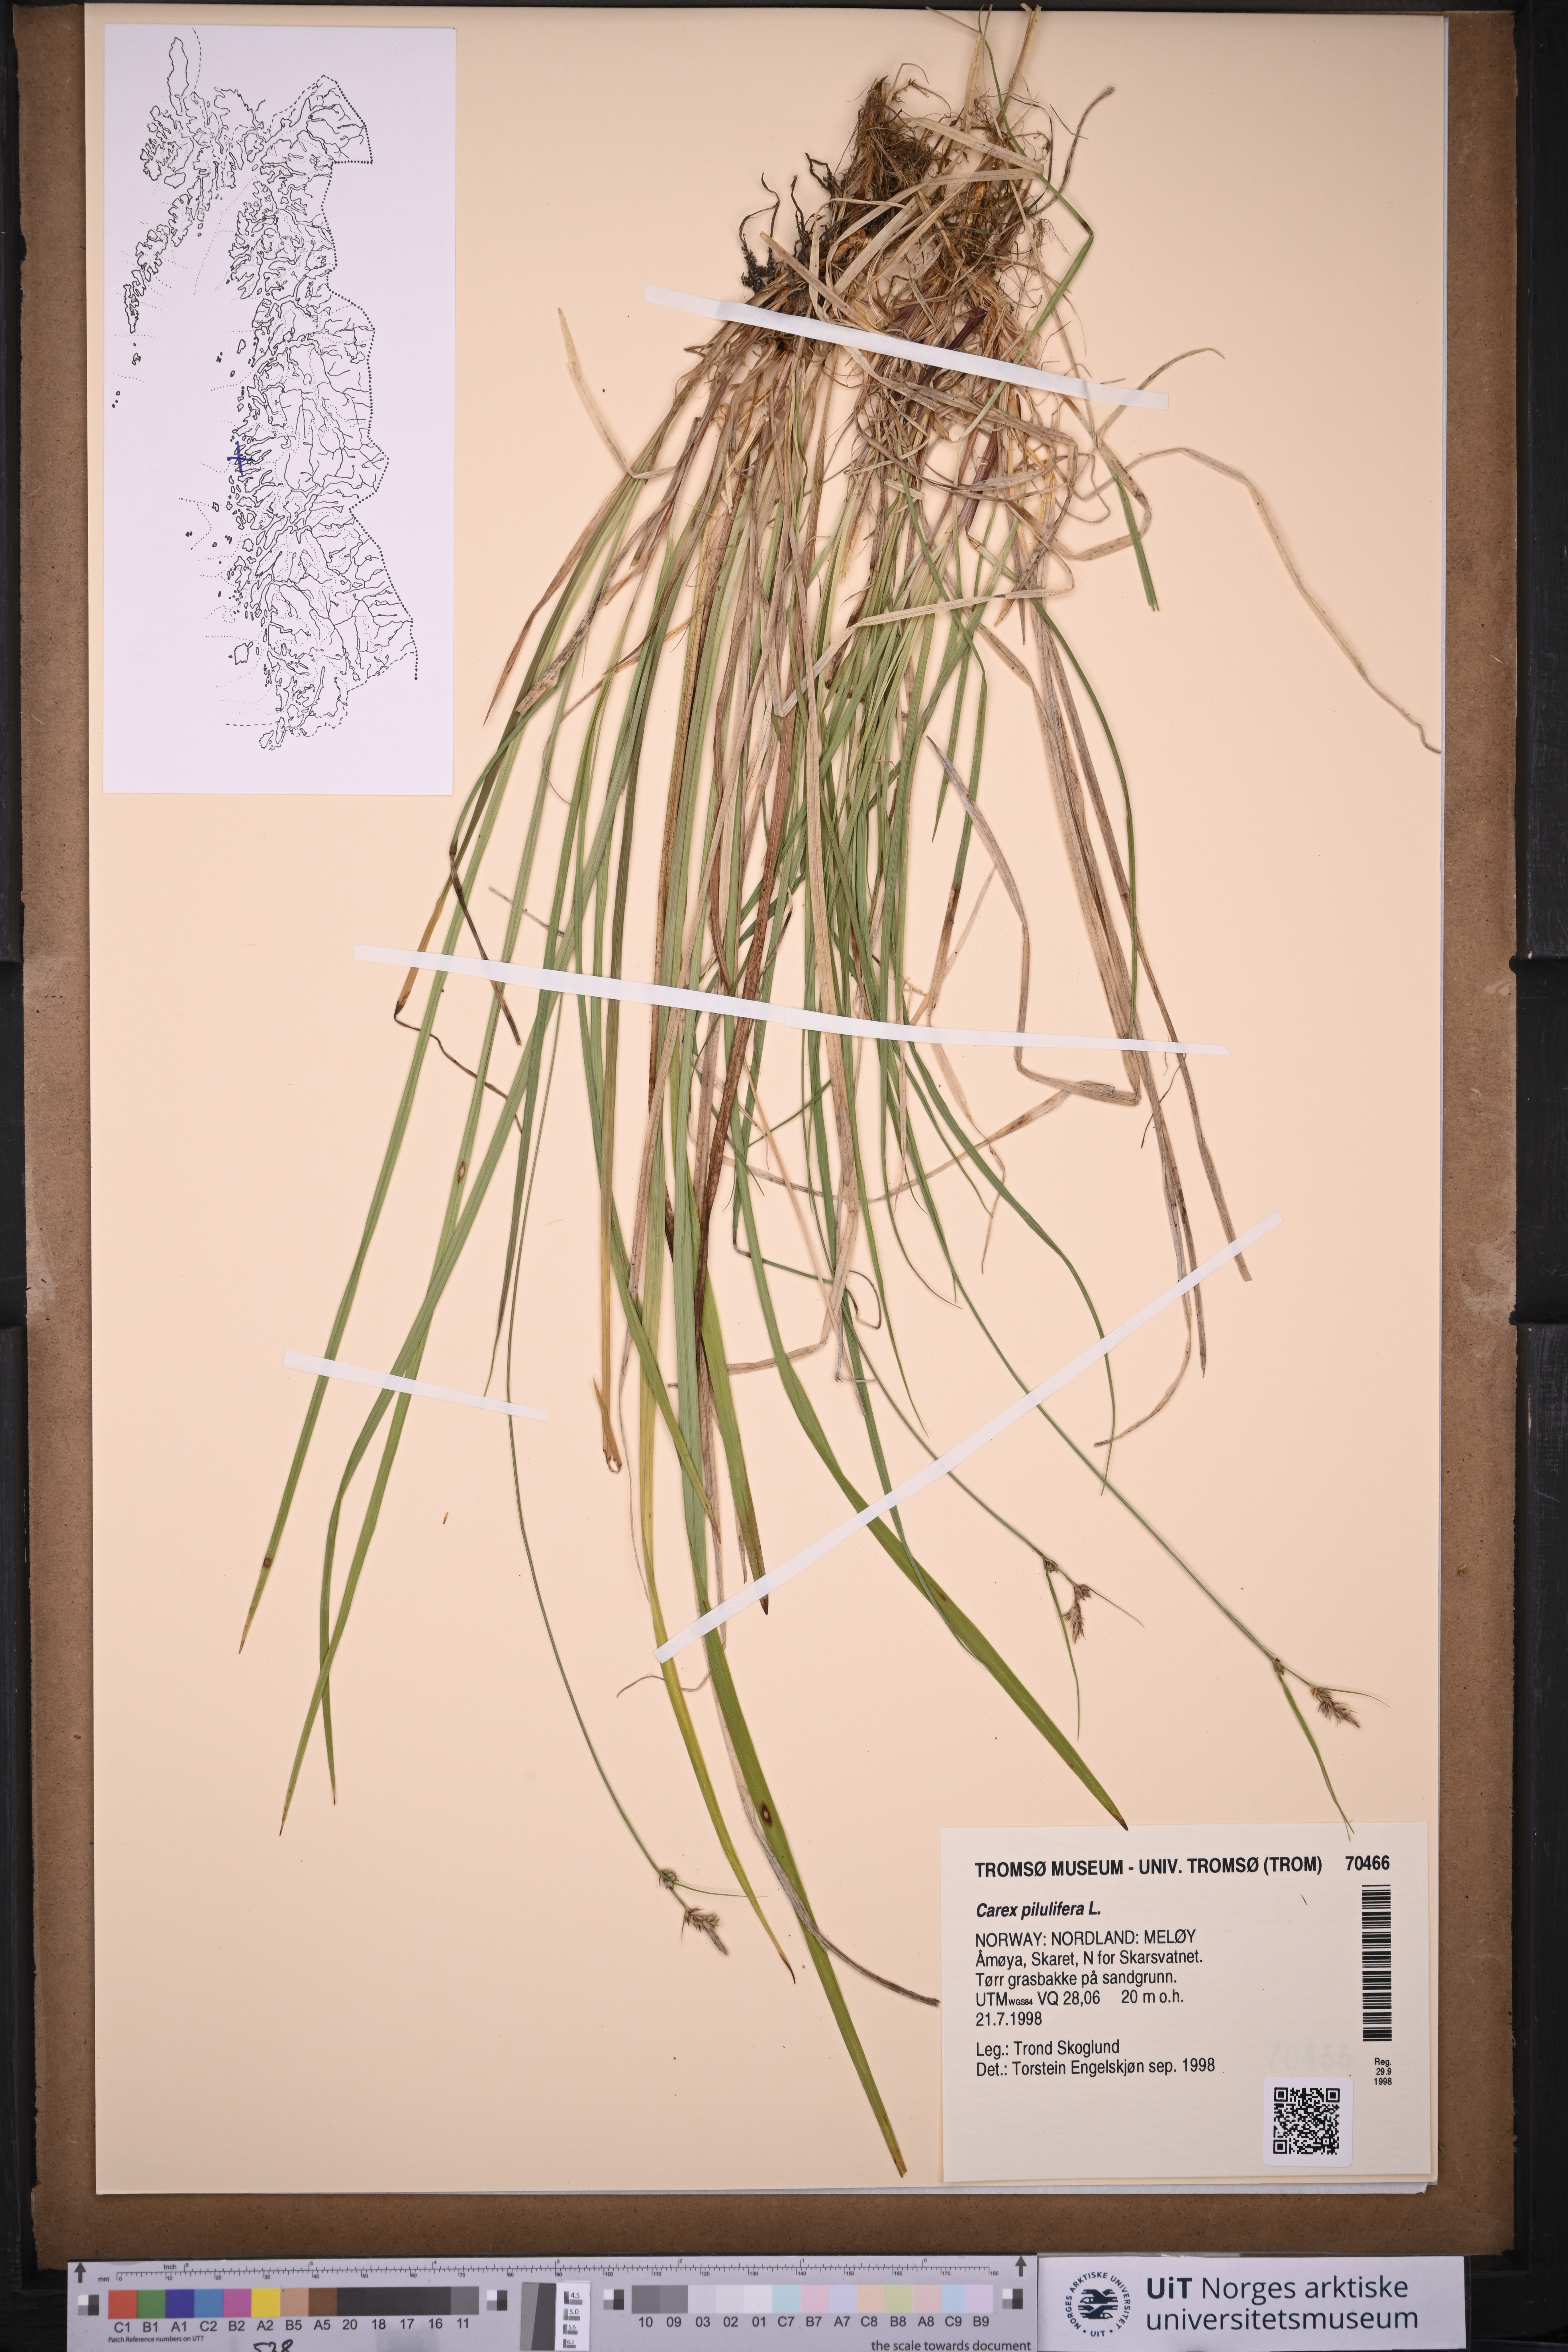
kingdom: Plantae
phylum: Tracheophyta
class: Liliopsida
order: Poales
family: Cyperaceae
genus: Carex
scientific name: Carex pilulifera
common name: Pill sedge
